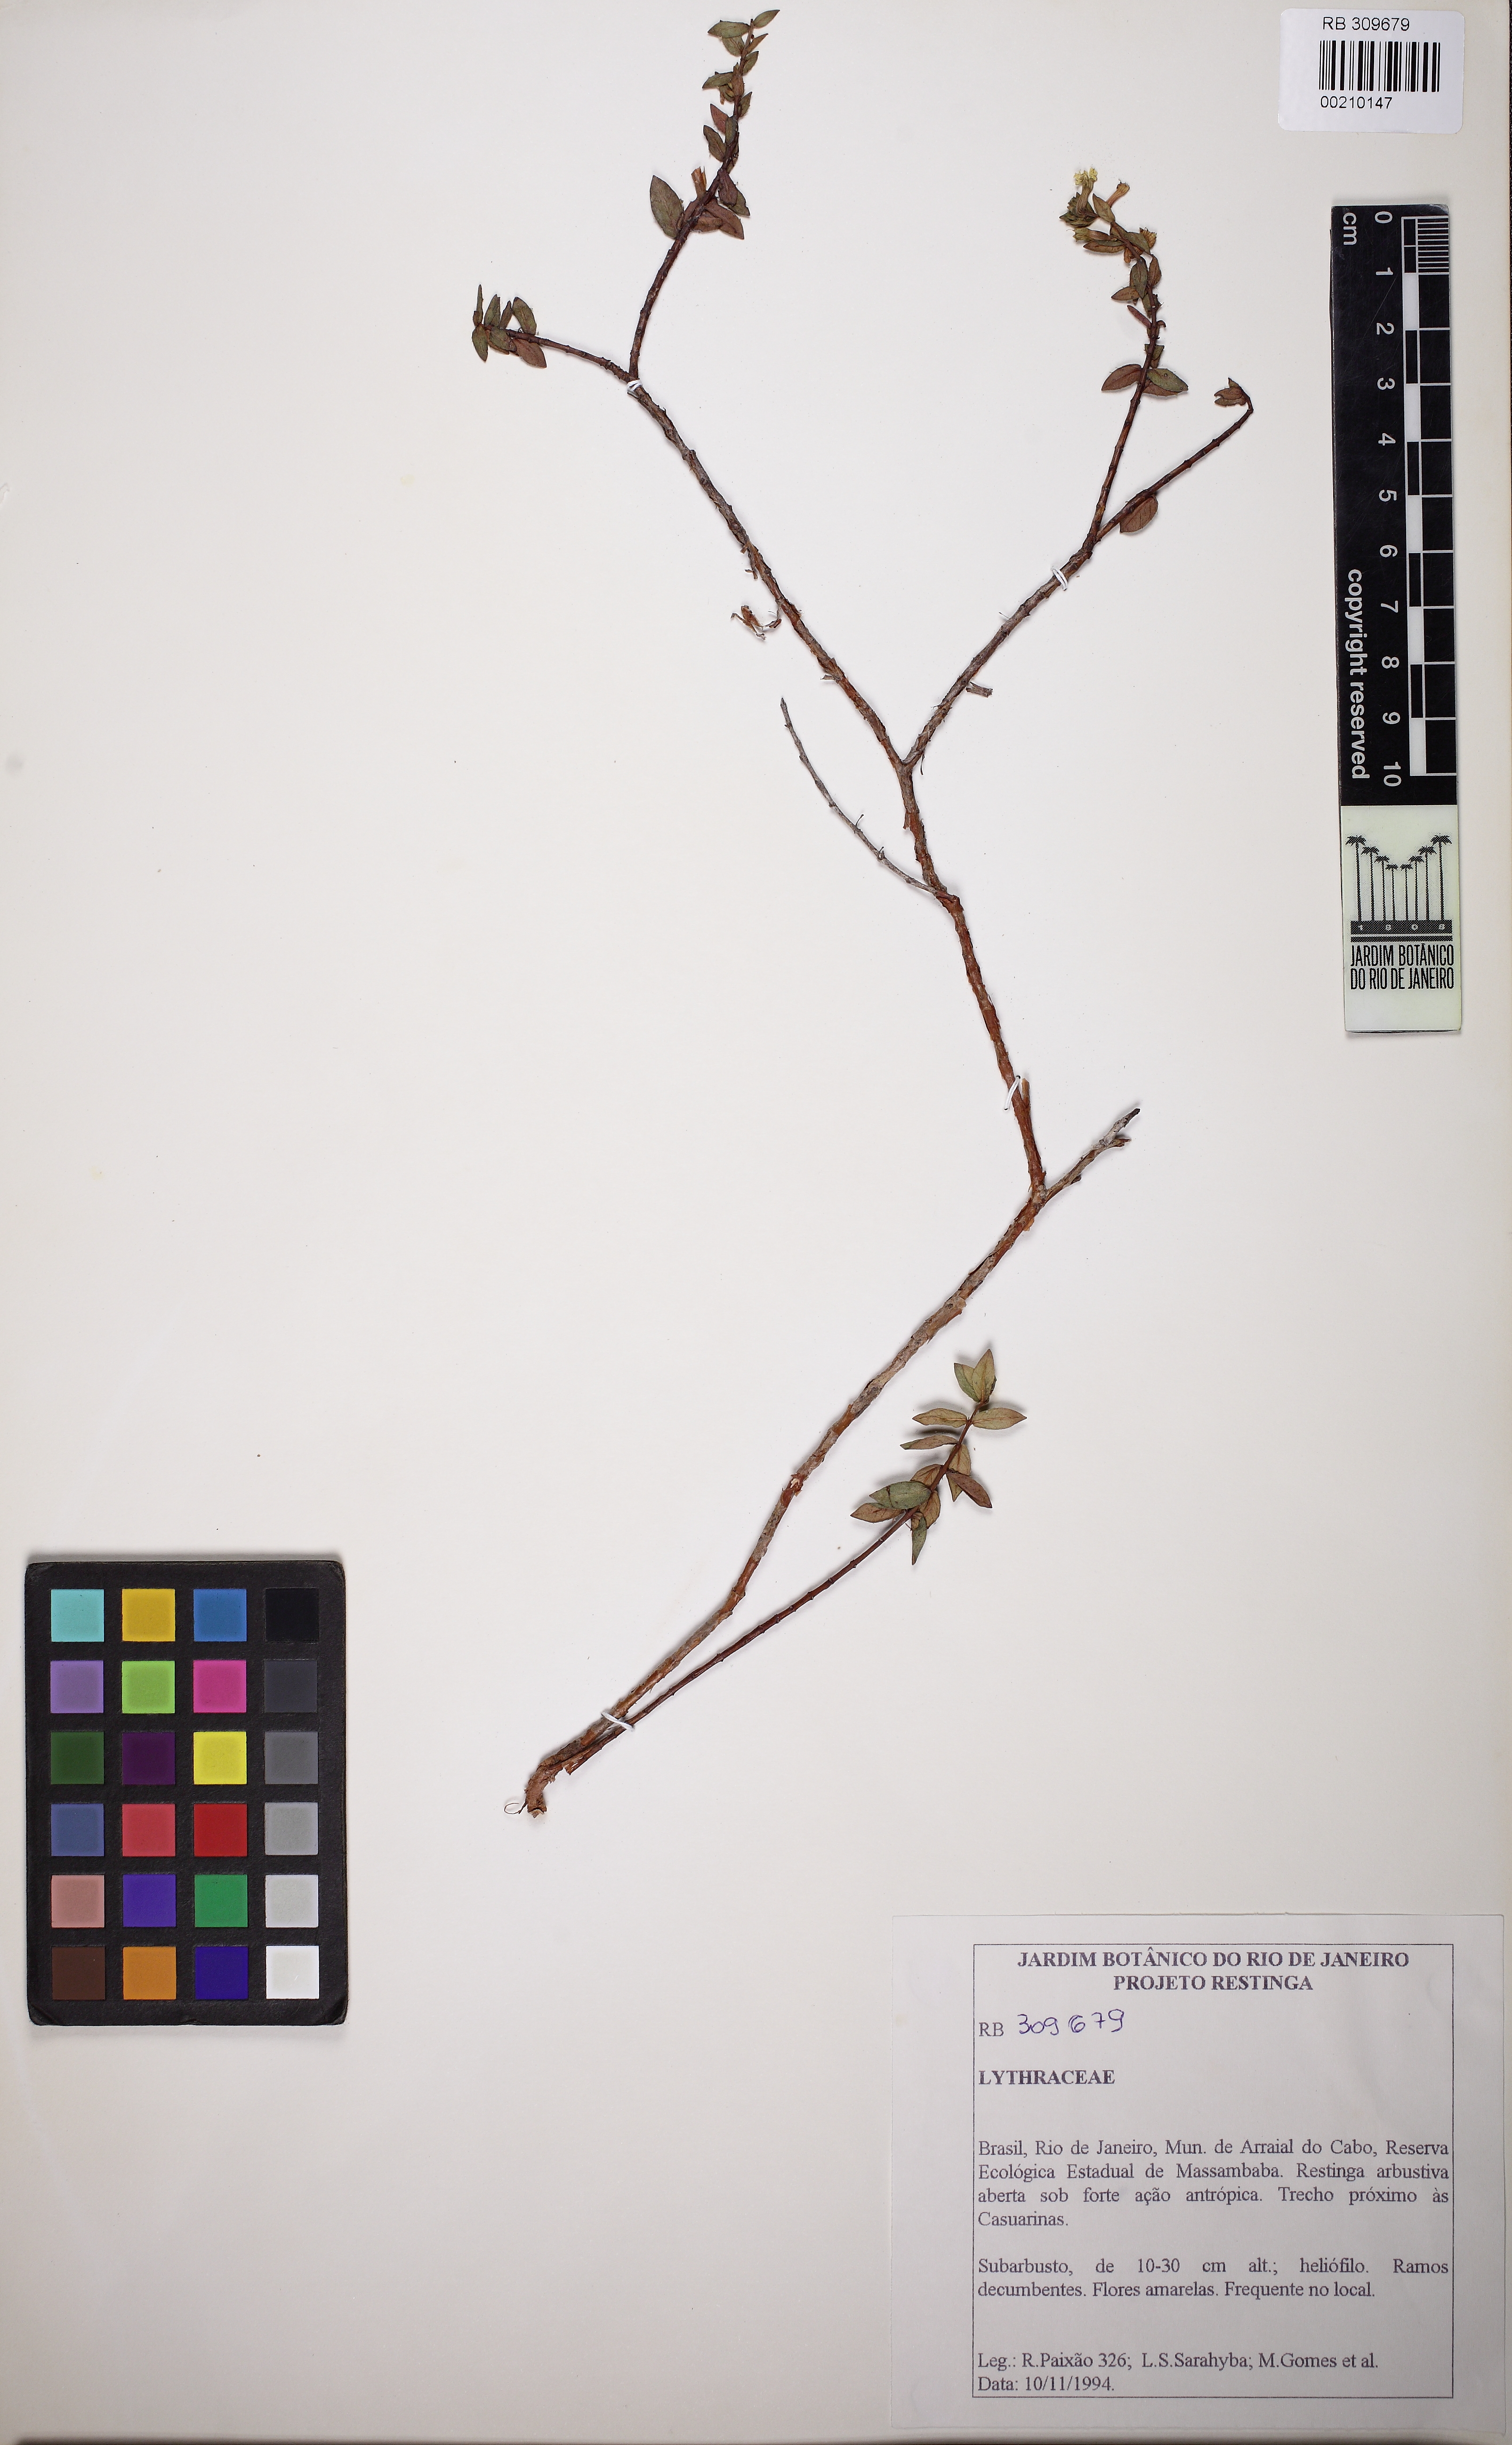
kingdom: Plantae
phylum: Tracheophyta
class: Magnoliopsida
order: Myrtales
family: Lythraceae
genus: Cuphea
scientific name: Cuphea flava
